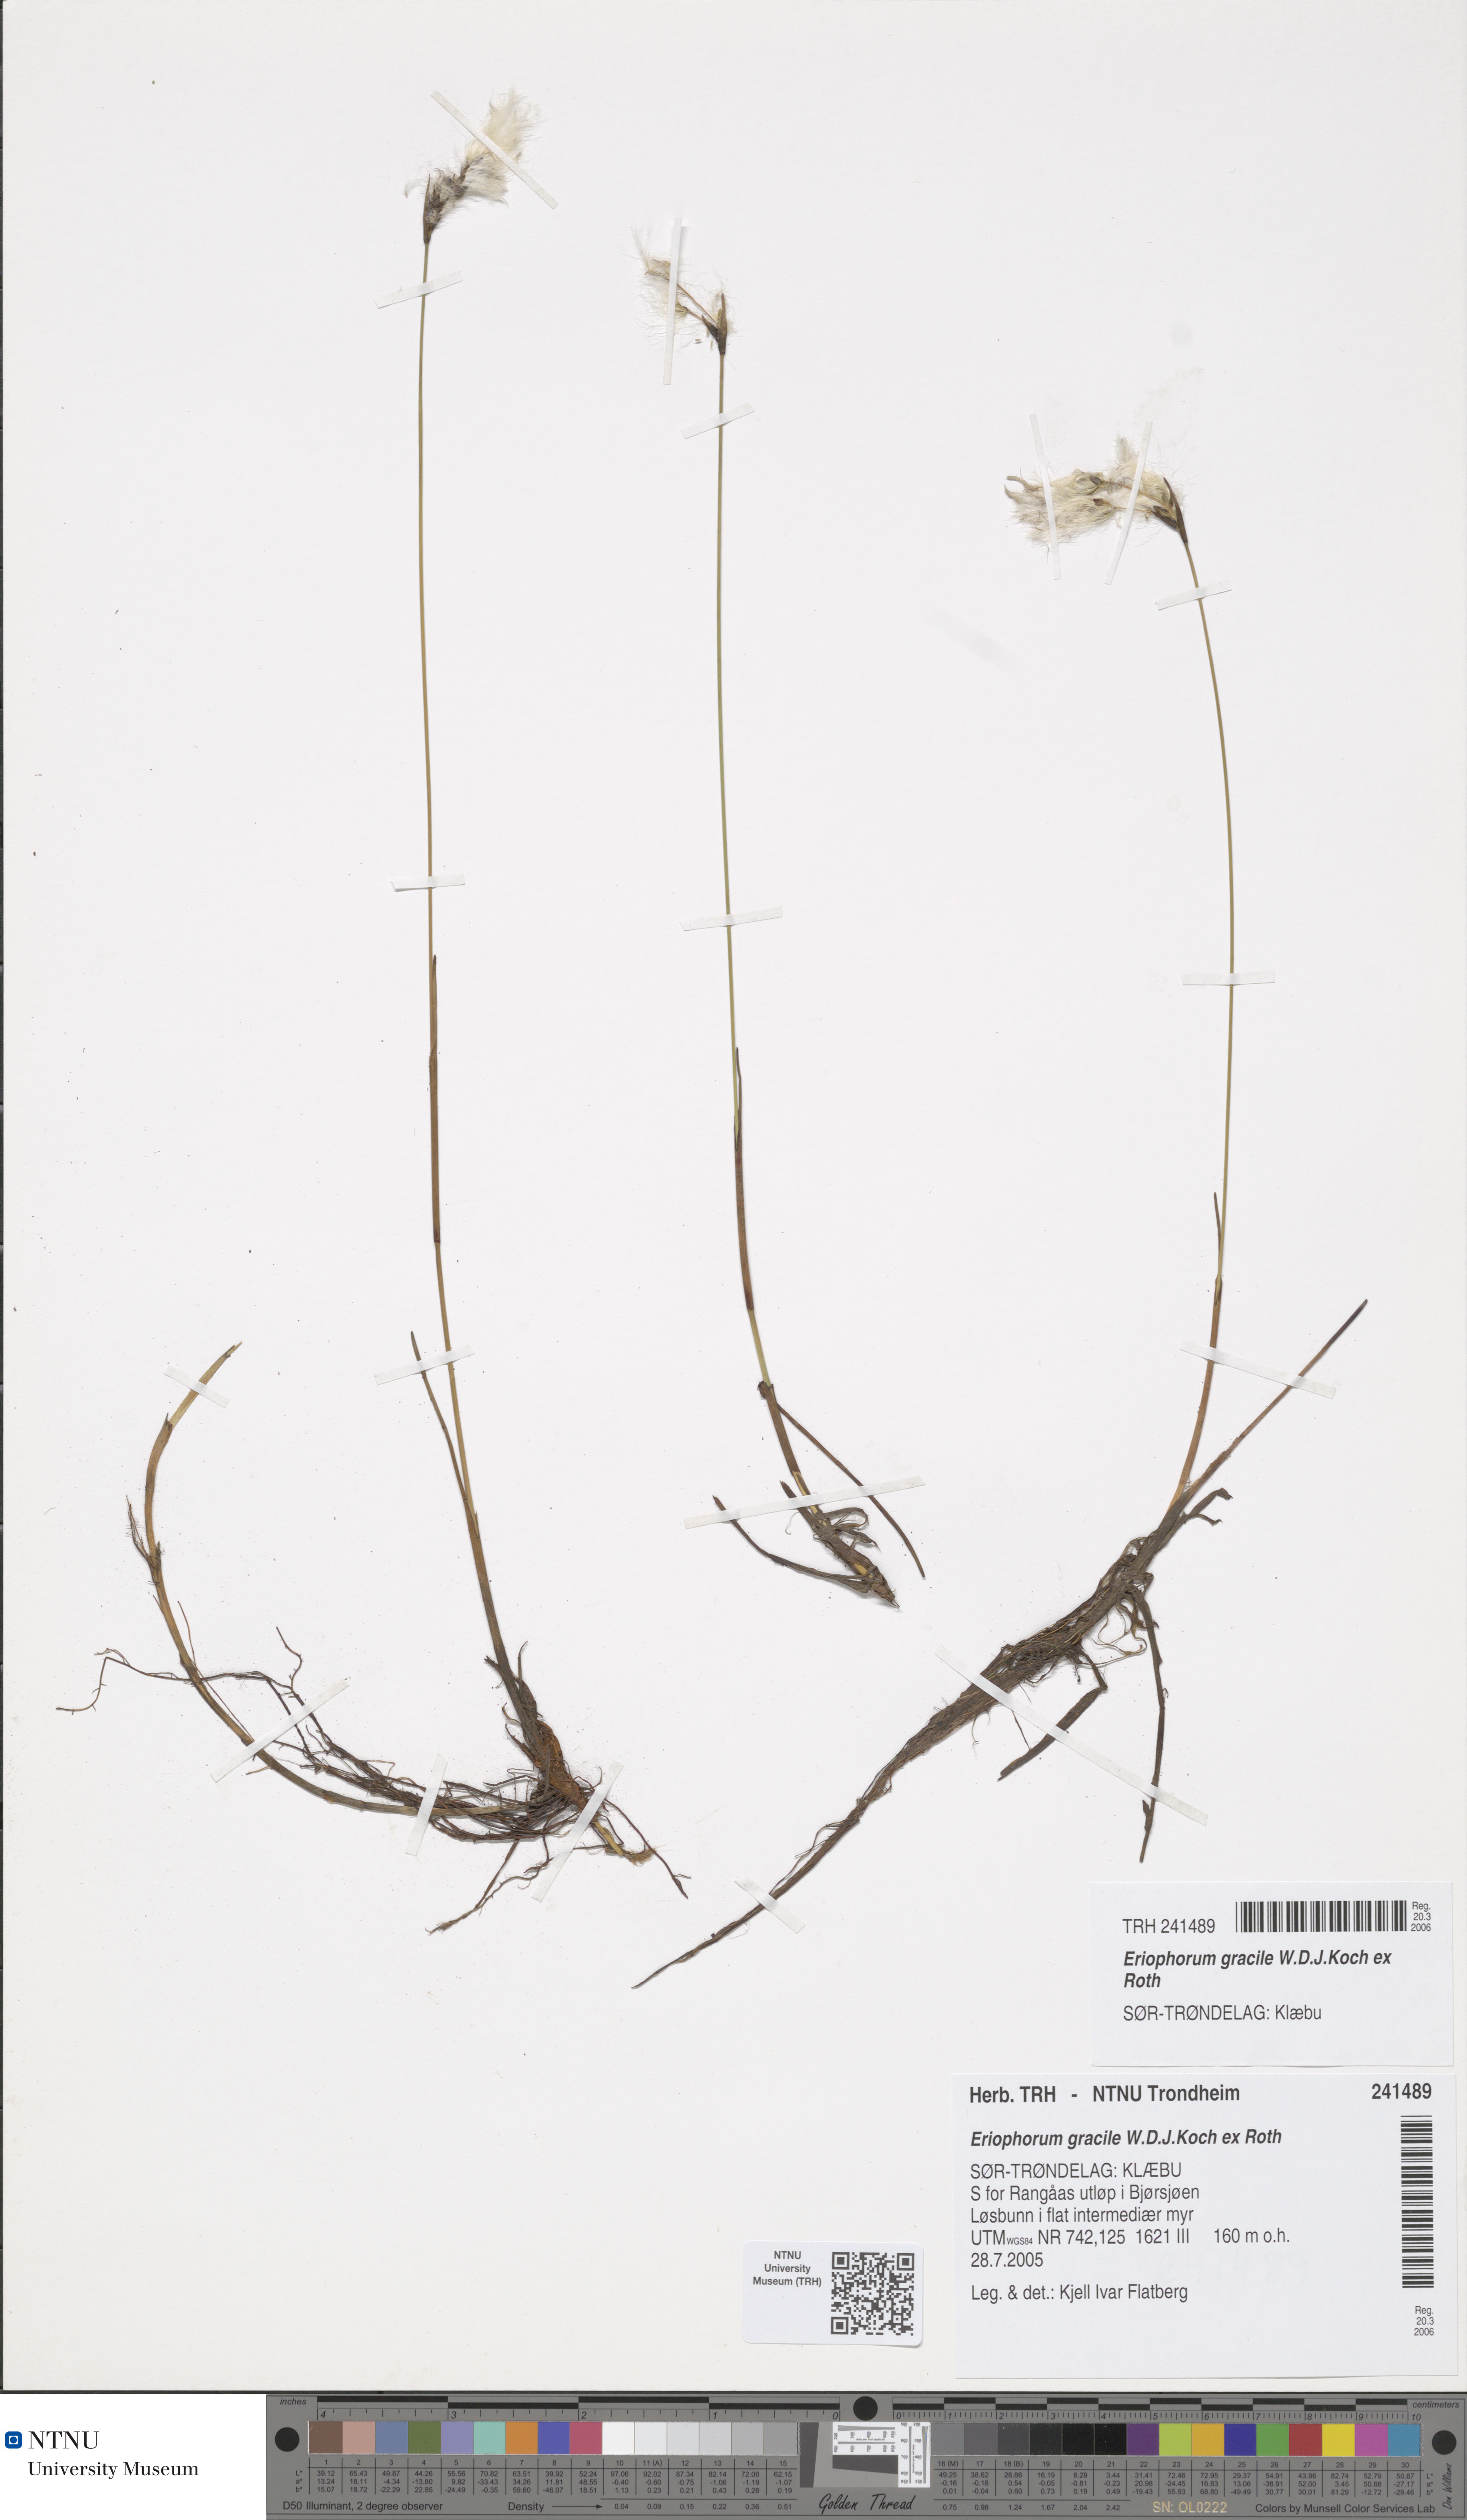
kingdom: Plantae
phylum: Tracheophyta
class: Liliopsida
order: Poales
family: Cyperaceae
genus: Eriophorum
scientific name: Eriophorum gracile
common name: Slender cottongrass
